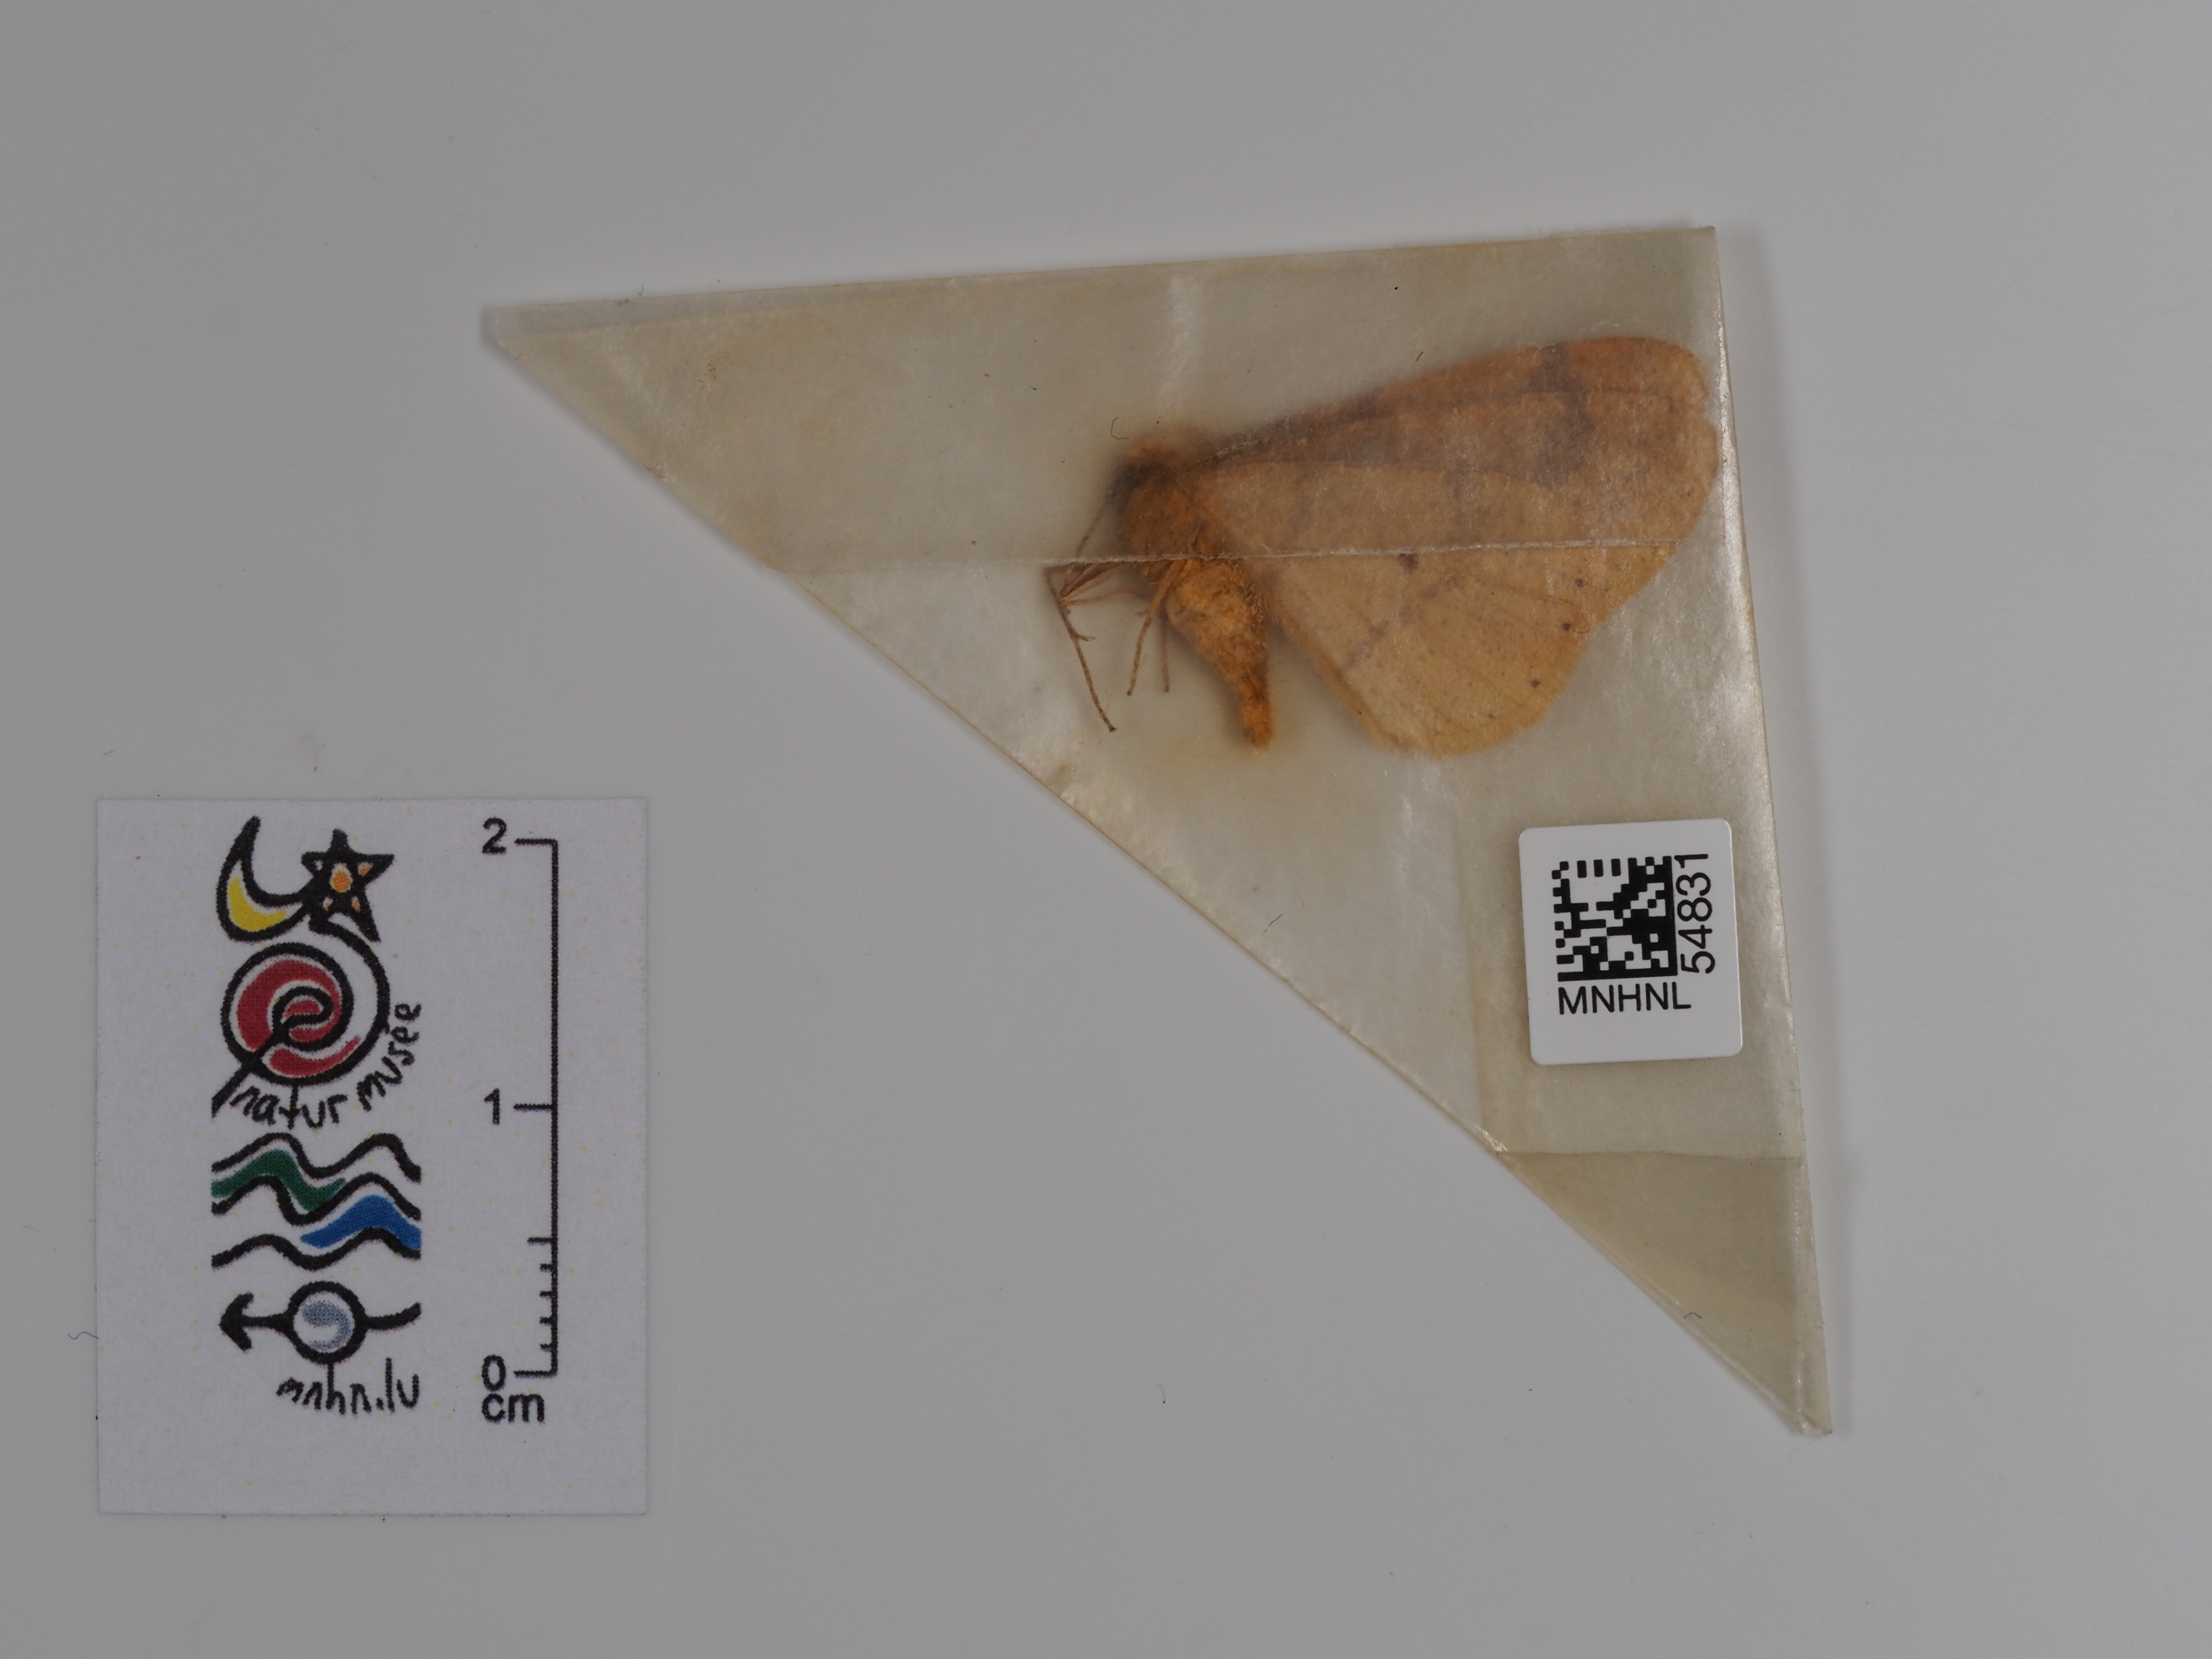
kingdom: Animalia
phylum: Arthropoda
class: Insecta
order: Lepidoptera
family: Geometridae
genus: Agriopis
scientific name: Agriopis aurantiaria
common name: Scarce umber
